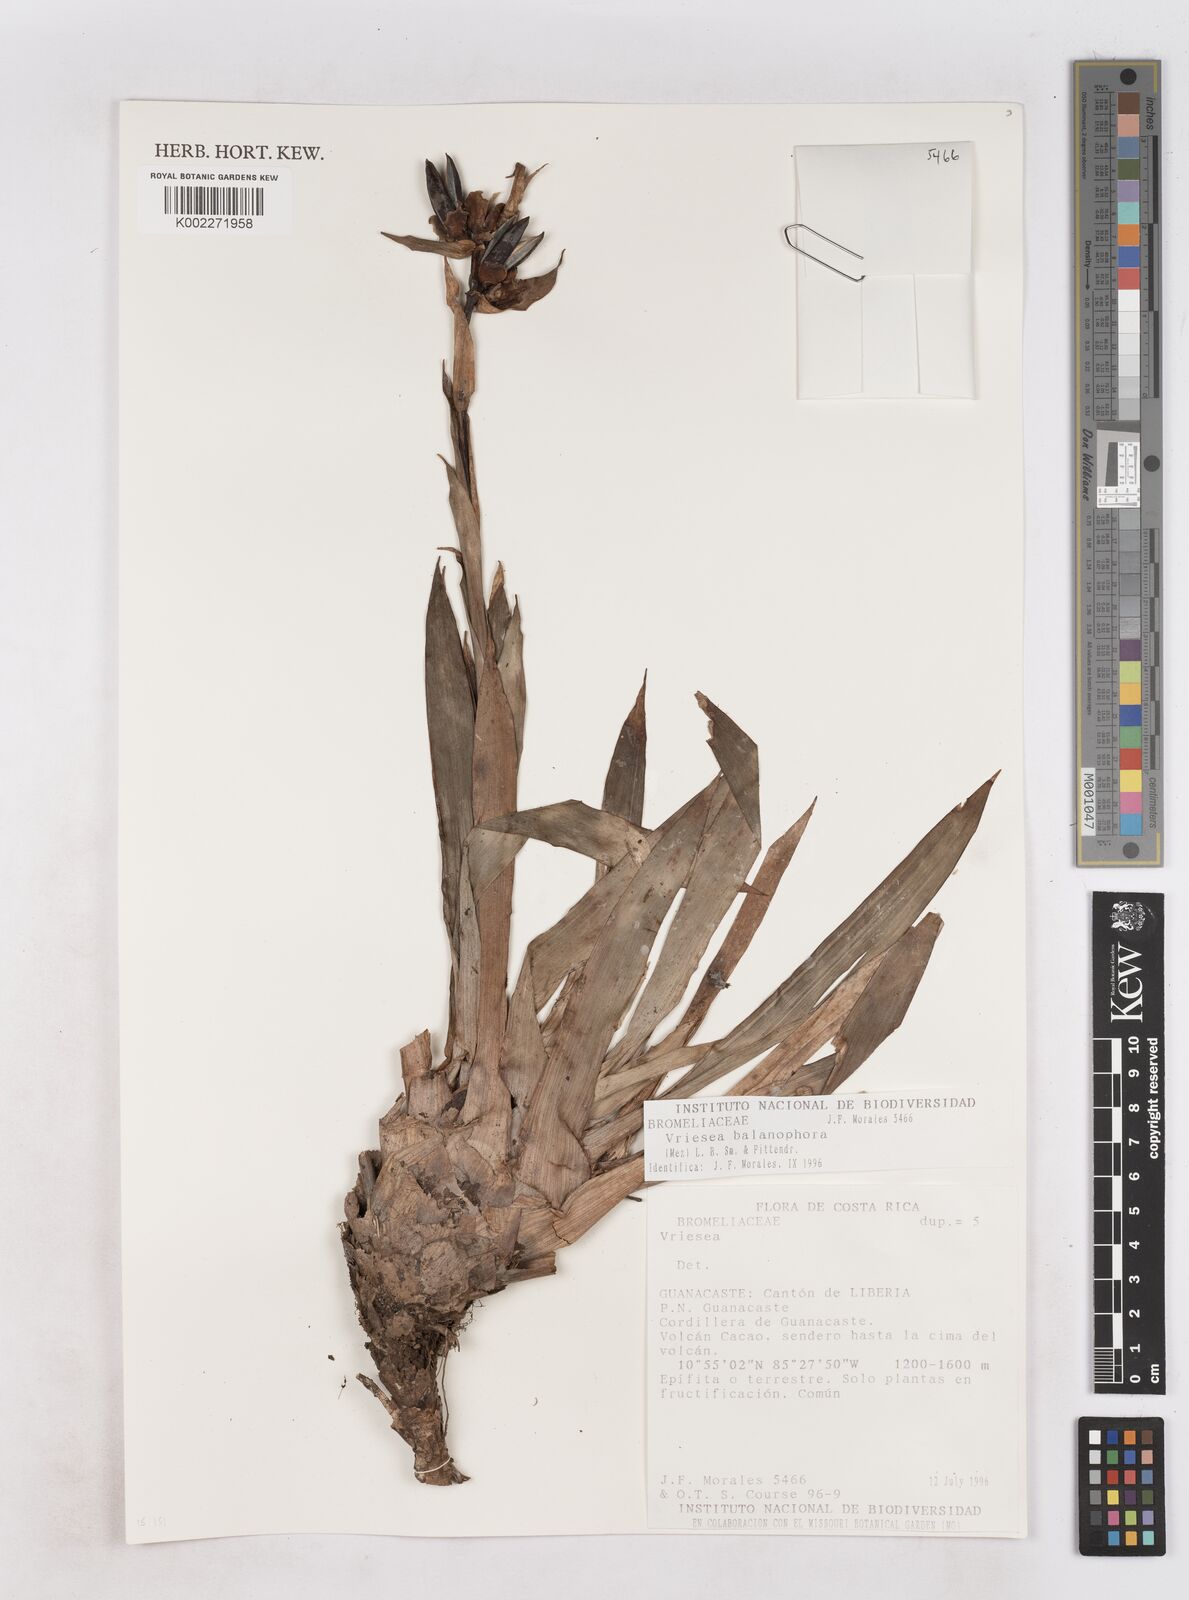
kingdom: Plantae
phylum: Tracheophyta
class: Liliopsida
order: Poales
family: Bromeliaceae
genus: Werauhia
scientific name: Werauhia balanophora
